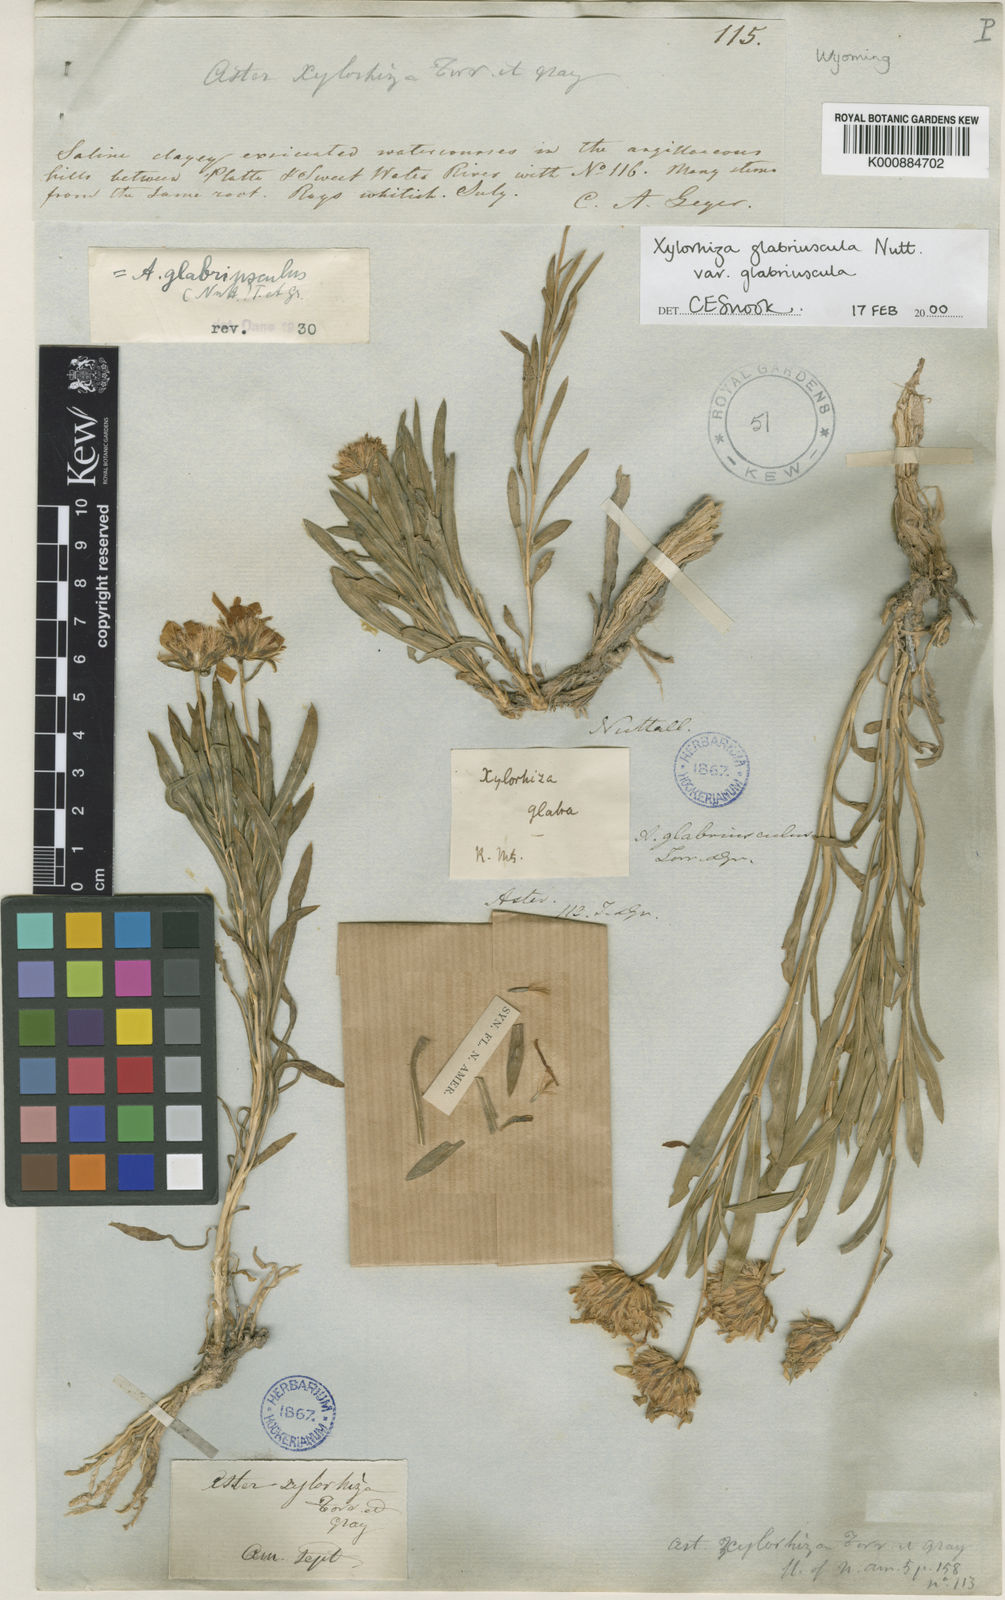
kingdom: Plantae
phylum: Tracheophyta
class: Magnoliopsida
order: Asterales
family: Asteraceae
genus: Xylorhiza
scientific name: Xylorhiza glabriuscula
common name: Smooth woody-aster
